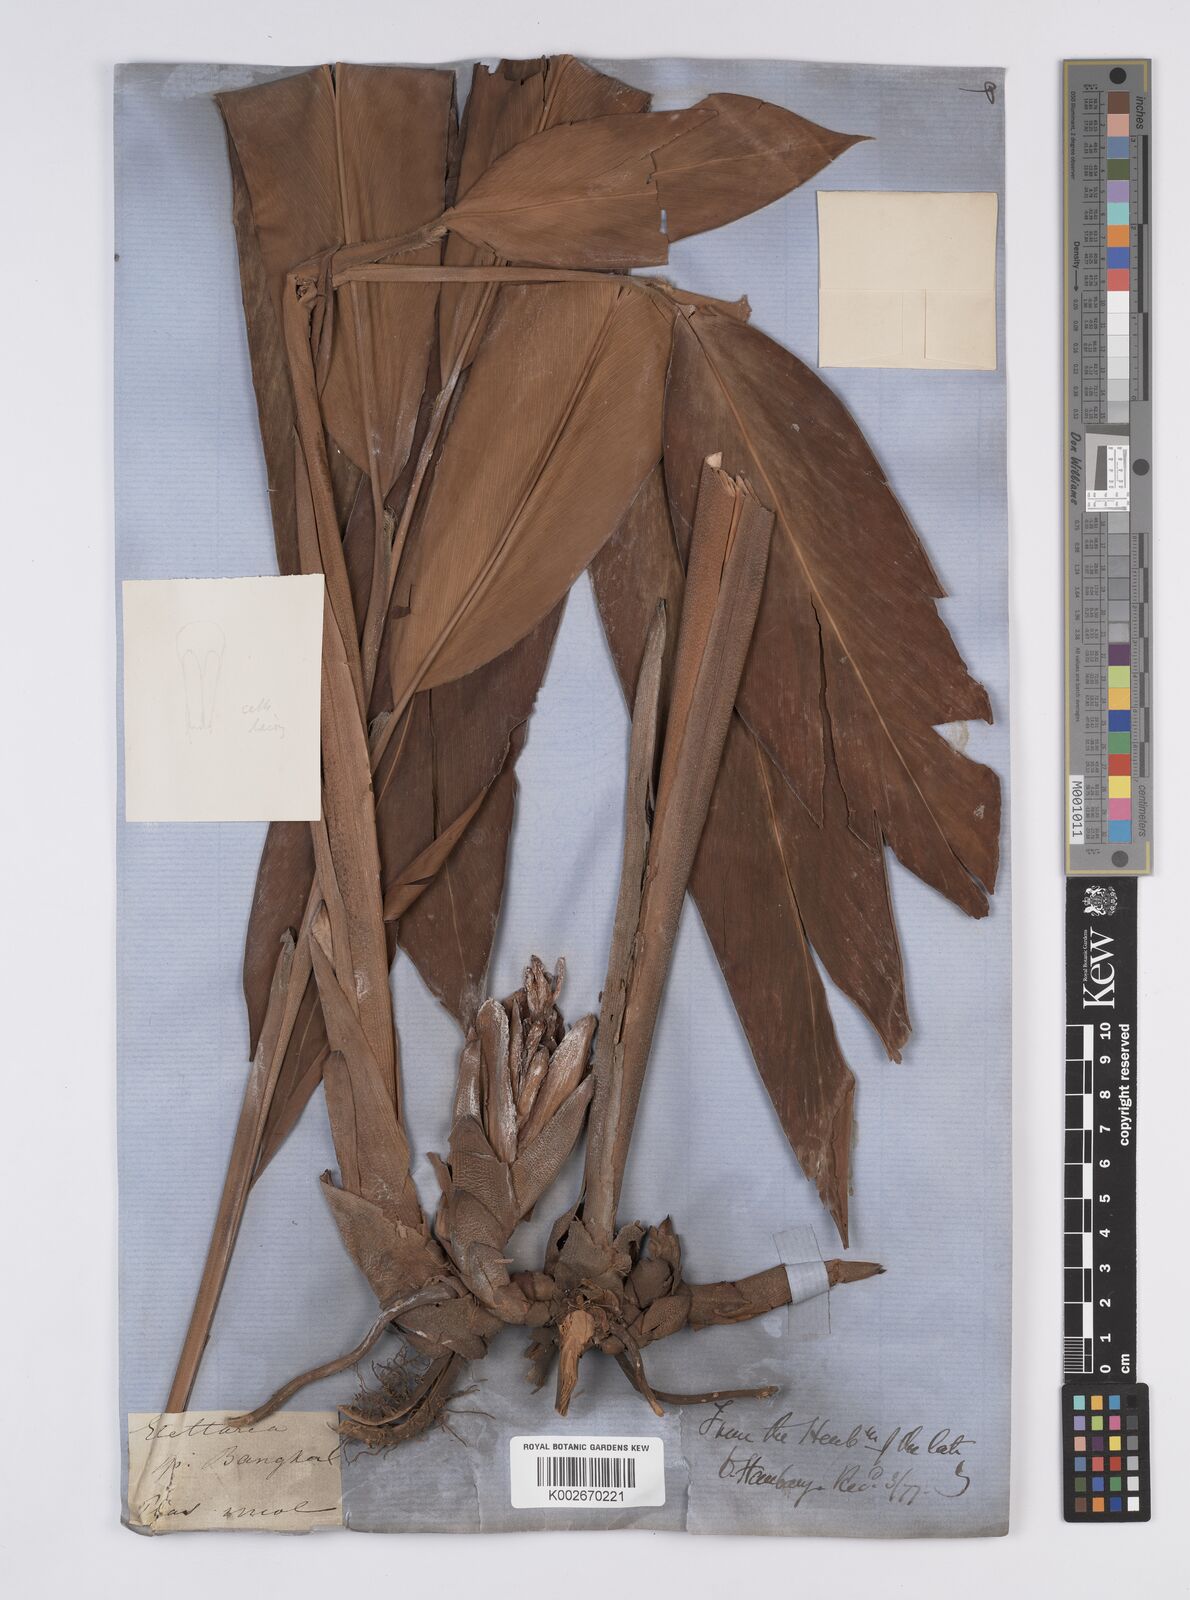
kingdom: Plantae
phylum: Tracheophyta
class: Liliopsida
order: Zingiberales
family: Zingiberaceae
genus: Hornstedtia
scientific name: Hornstedtia reticulata
